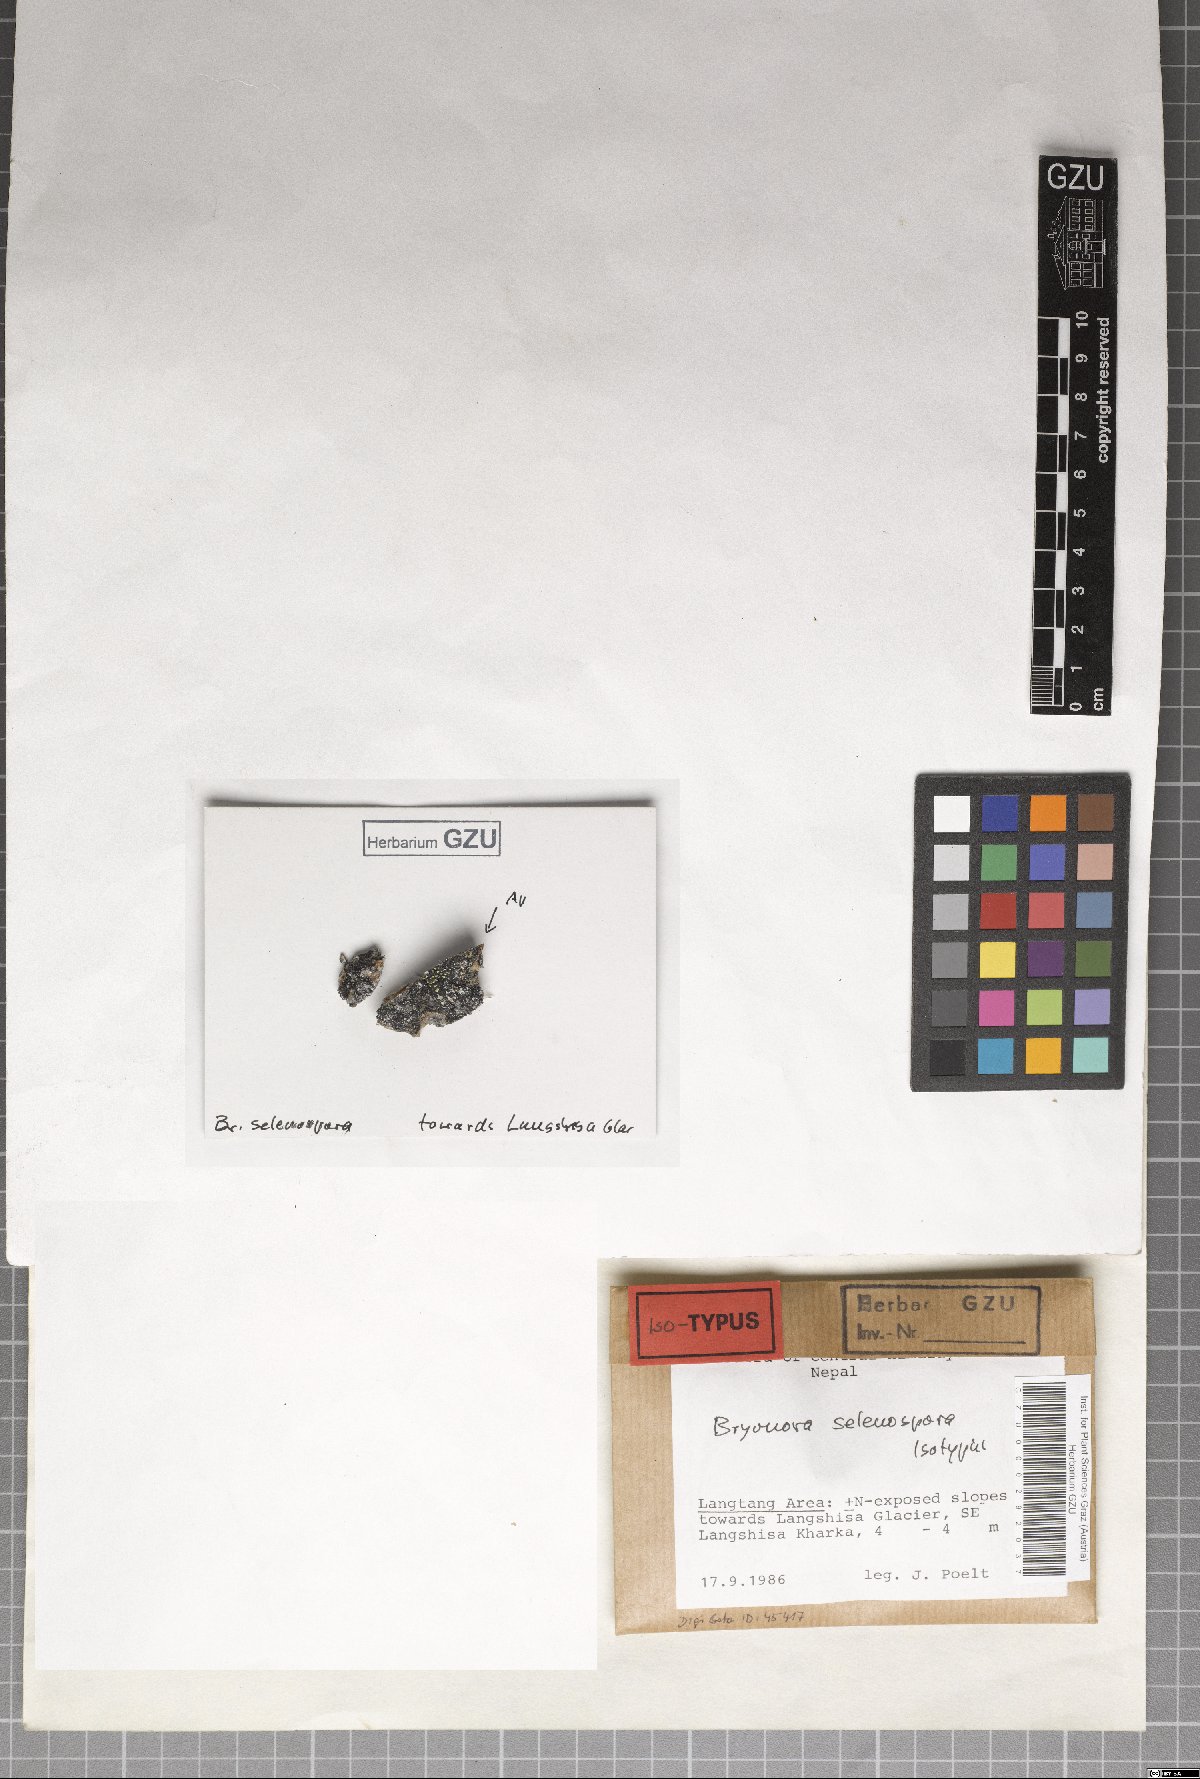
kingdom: Fungi
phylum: Ascomycota
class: Lecanoromycetes
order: Lecanorales
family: Lecanoraceae
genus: Bryodina
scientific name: Bryodina selenospora
